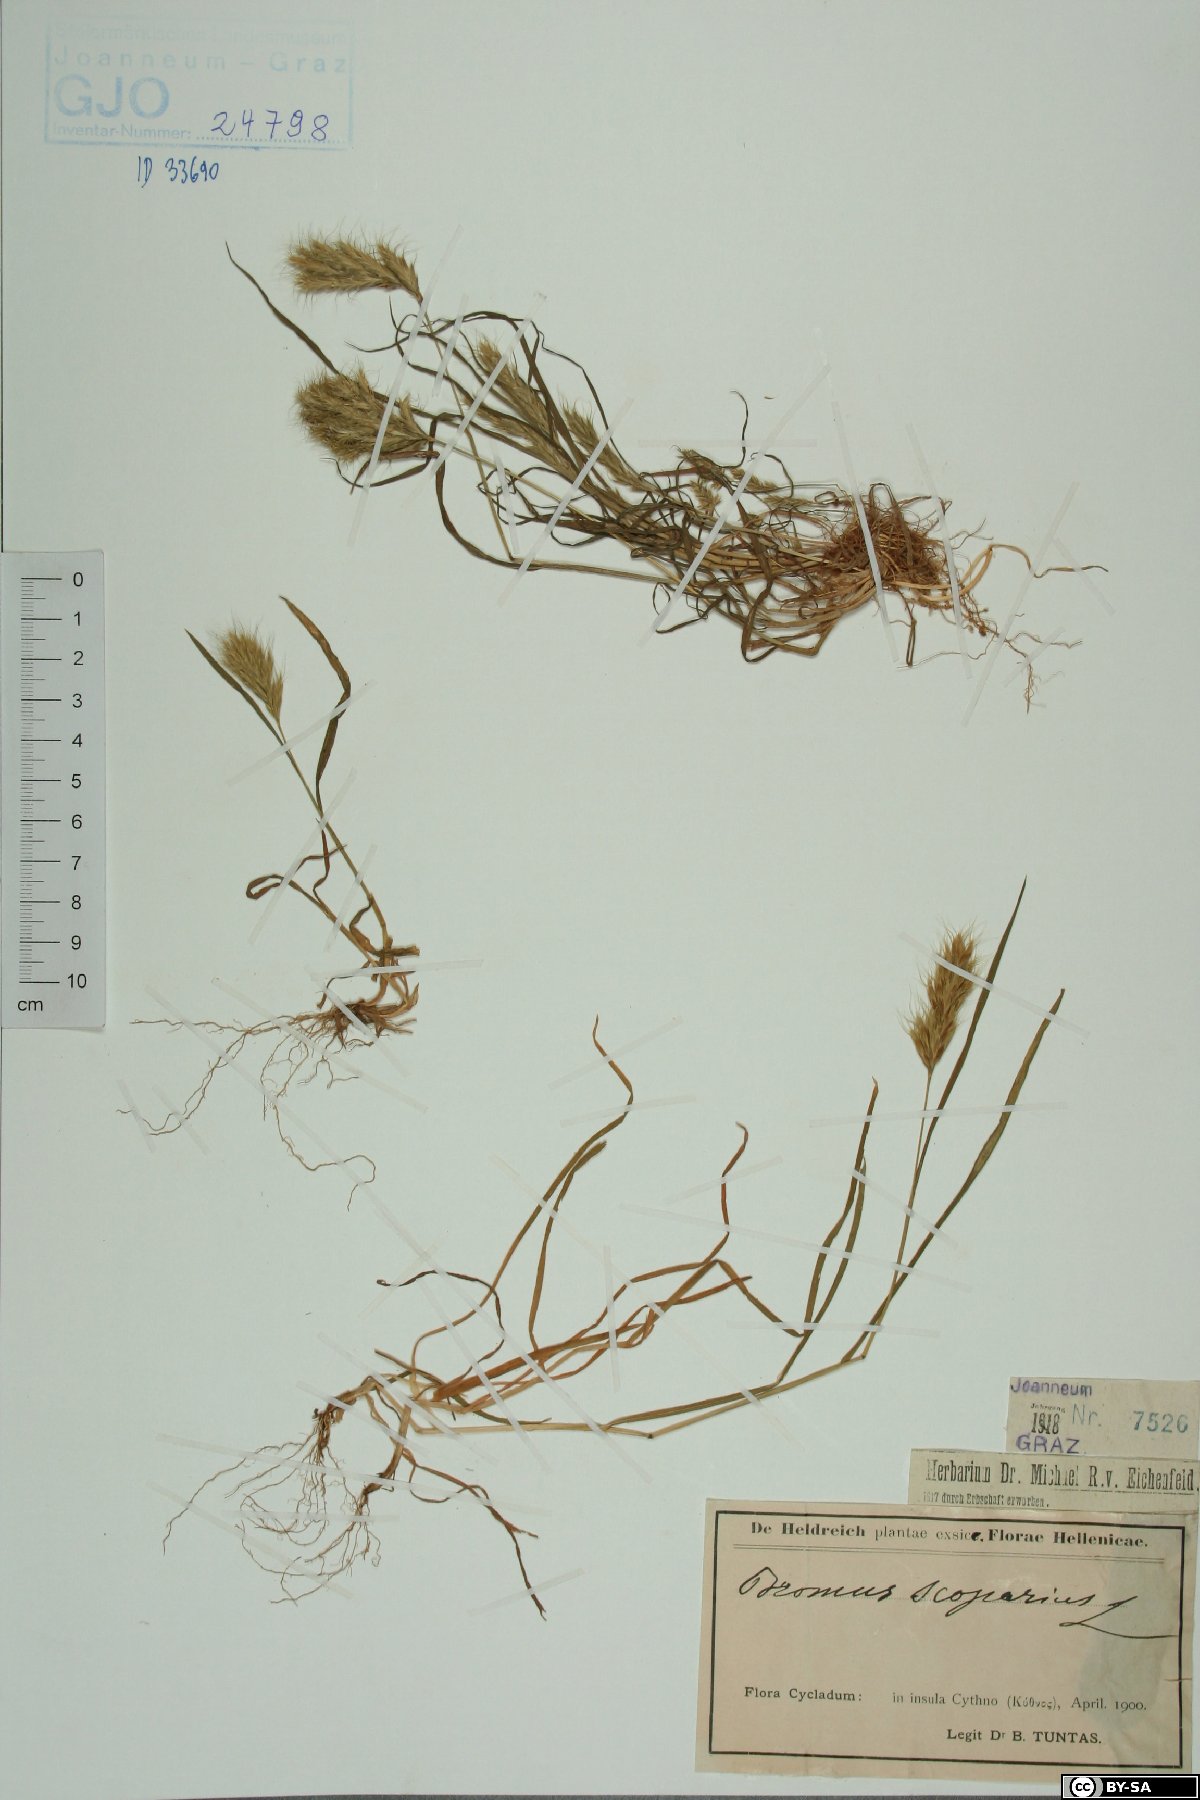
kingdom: Plantae
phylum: Tracheophyta
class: Liliopsida
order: Poales
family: Poaceae
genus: Bromus
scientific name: Bromus scoparius
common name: Broom brome
